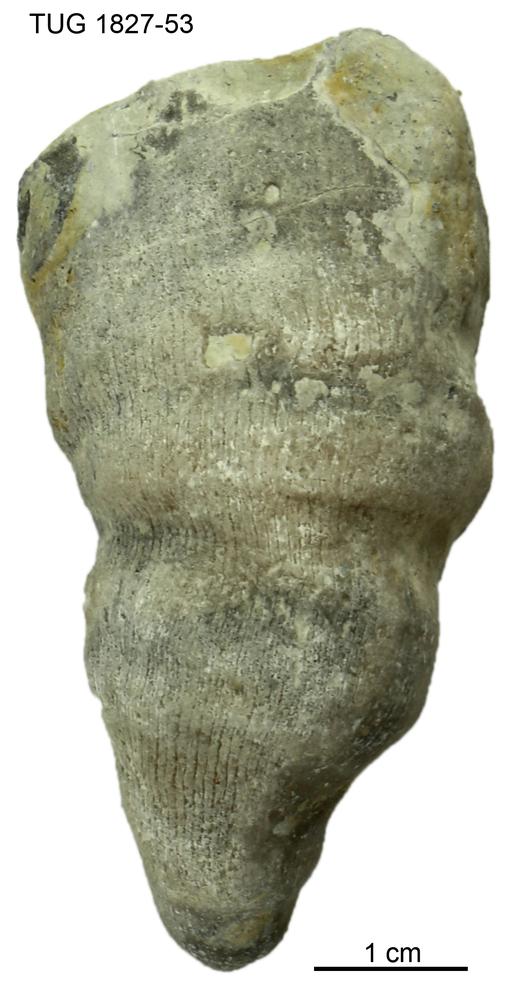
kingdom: Animalia
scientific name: Animalia
